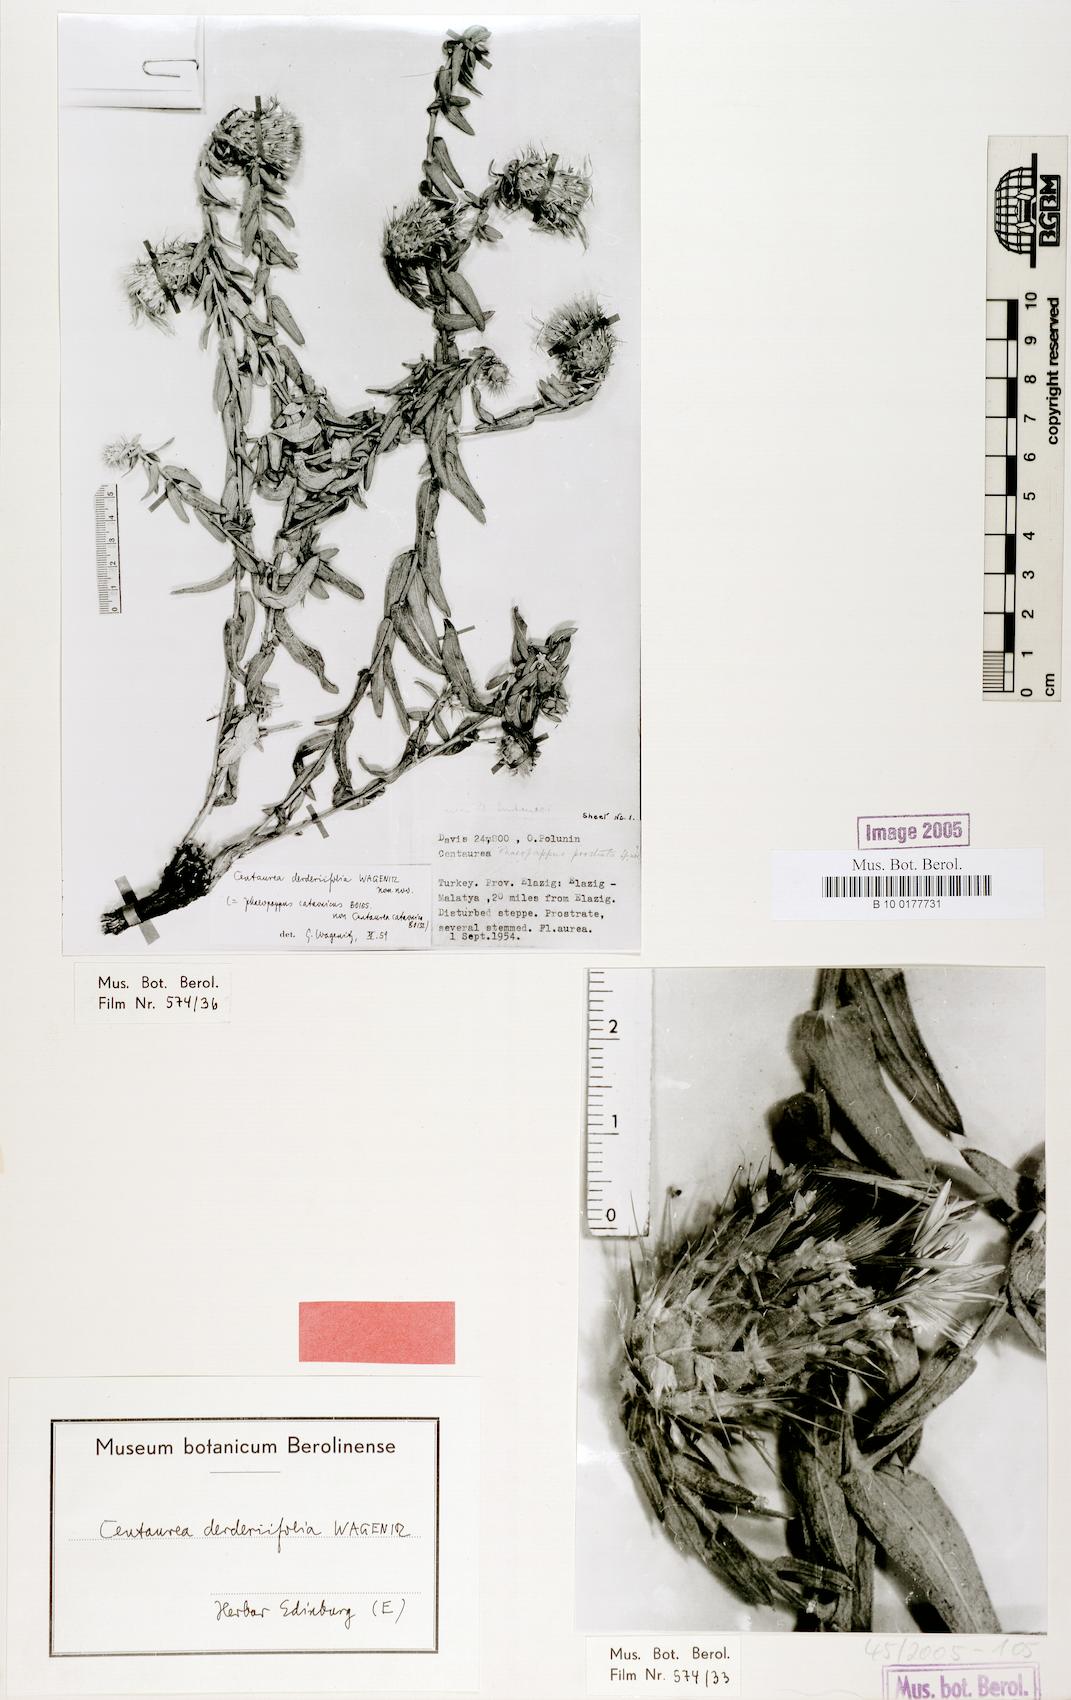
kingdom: Plantae
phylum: Tracheophyta
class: Magnoliopsida
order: Asterales
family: Asteraceae
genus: Centaurea
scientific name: Centaurea derderiifolia
